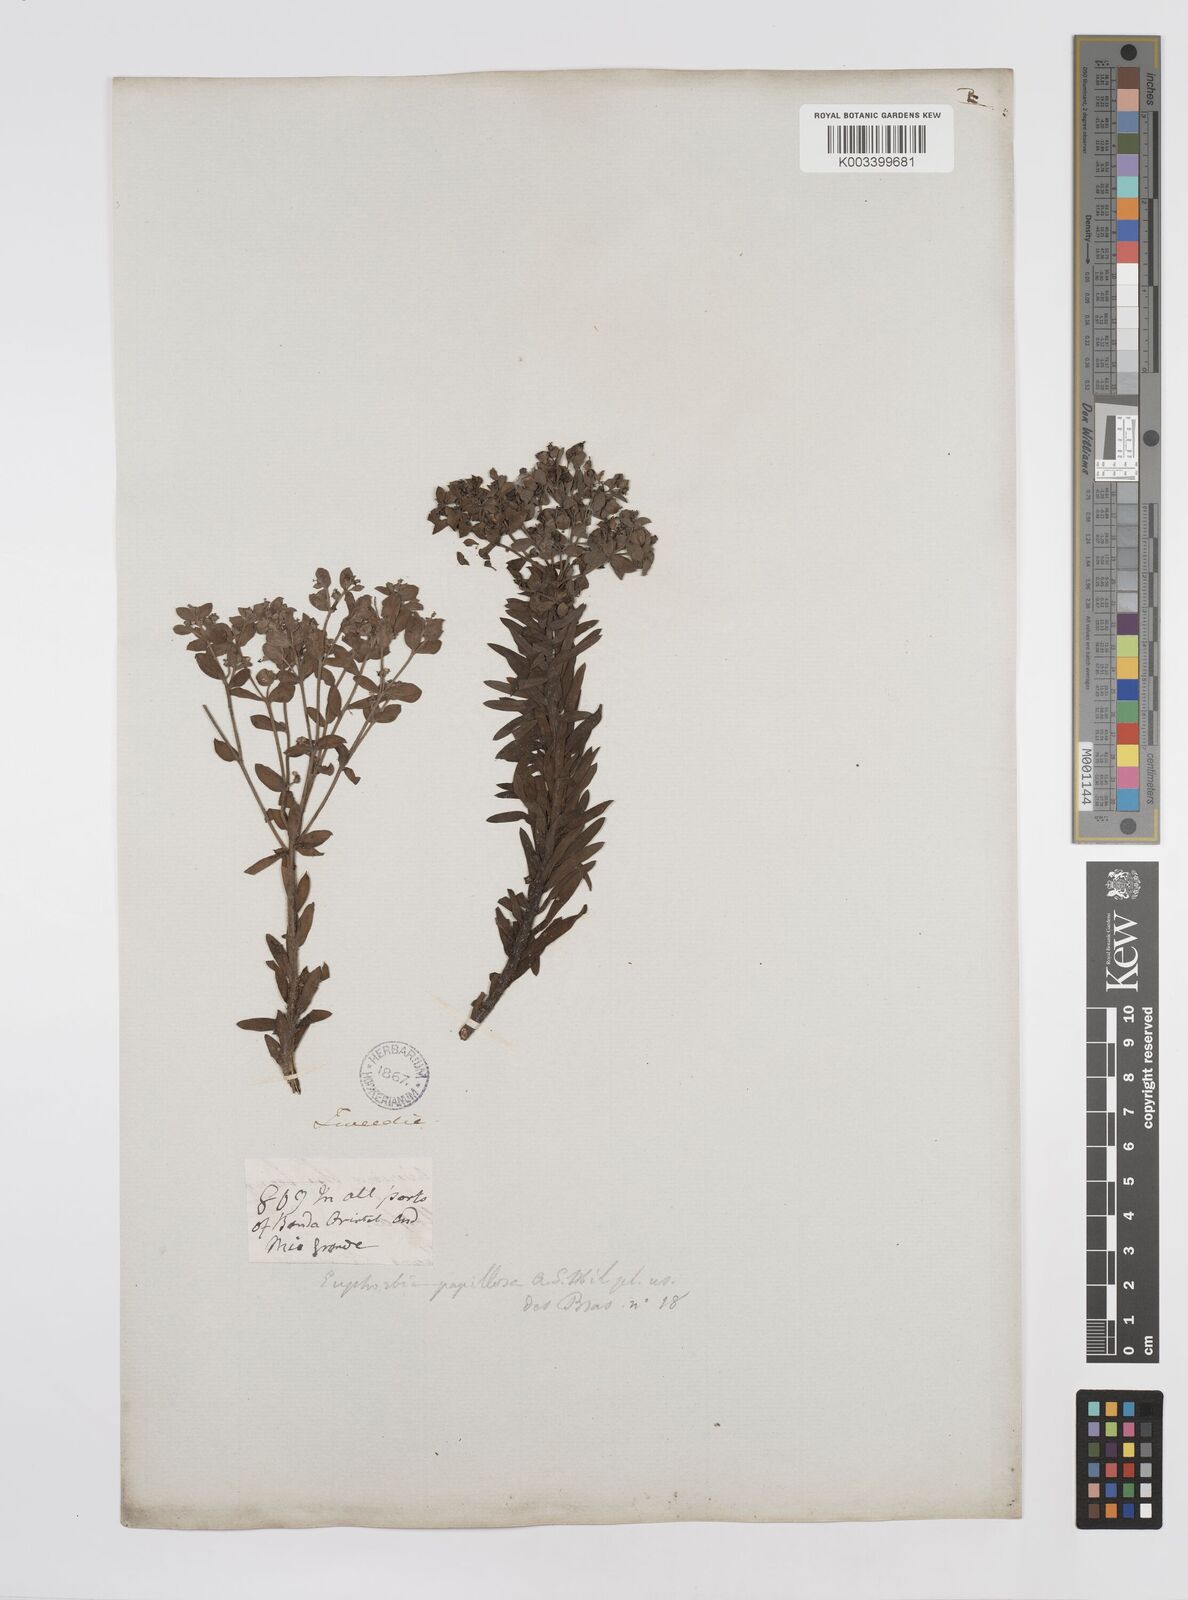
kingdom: Plantae
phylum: Tracheophyta
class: Magnoliopsida
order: Malpighiales
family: Euphorbiaceae
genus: Euphorbia
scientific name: Euphorbia
